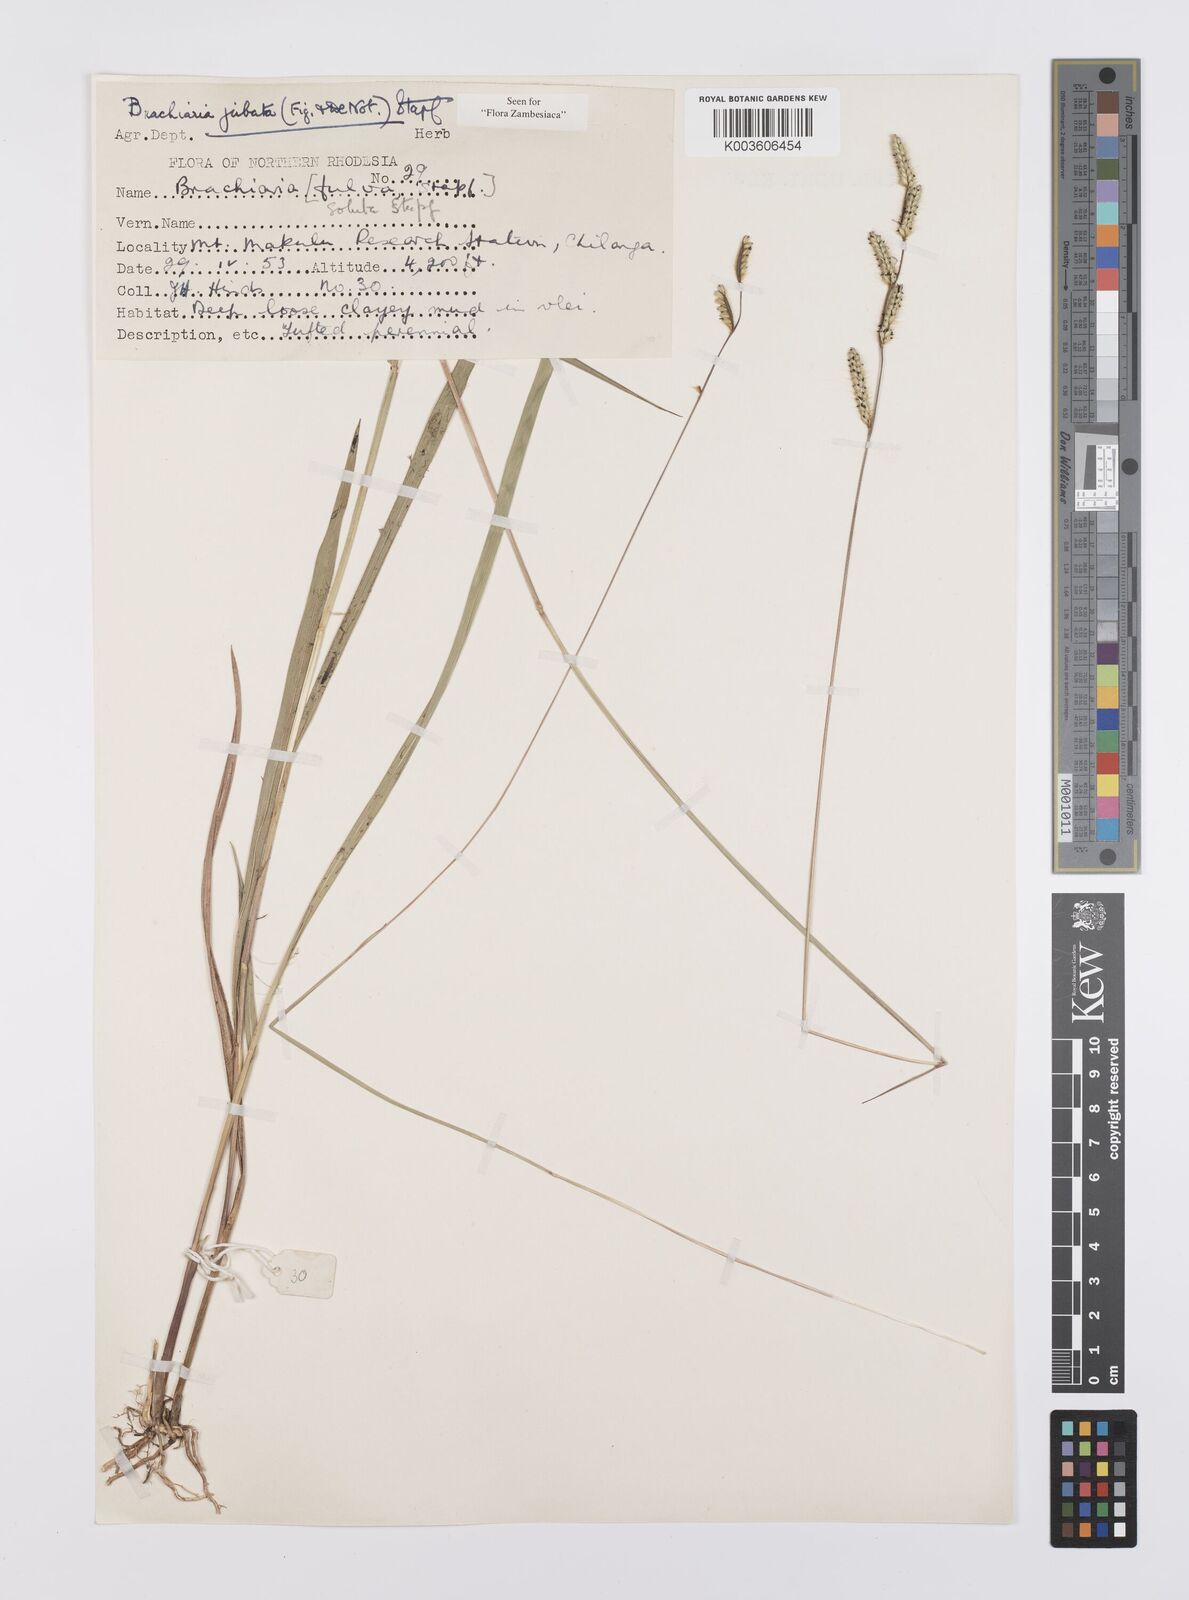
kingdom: Plantae
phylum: Tracheophyta
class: Liliopsida
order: Poales
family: Poaceae
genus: Urochloa
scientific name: Urochloa jubata
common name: Buffalograss
